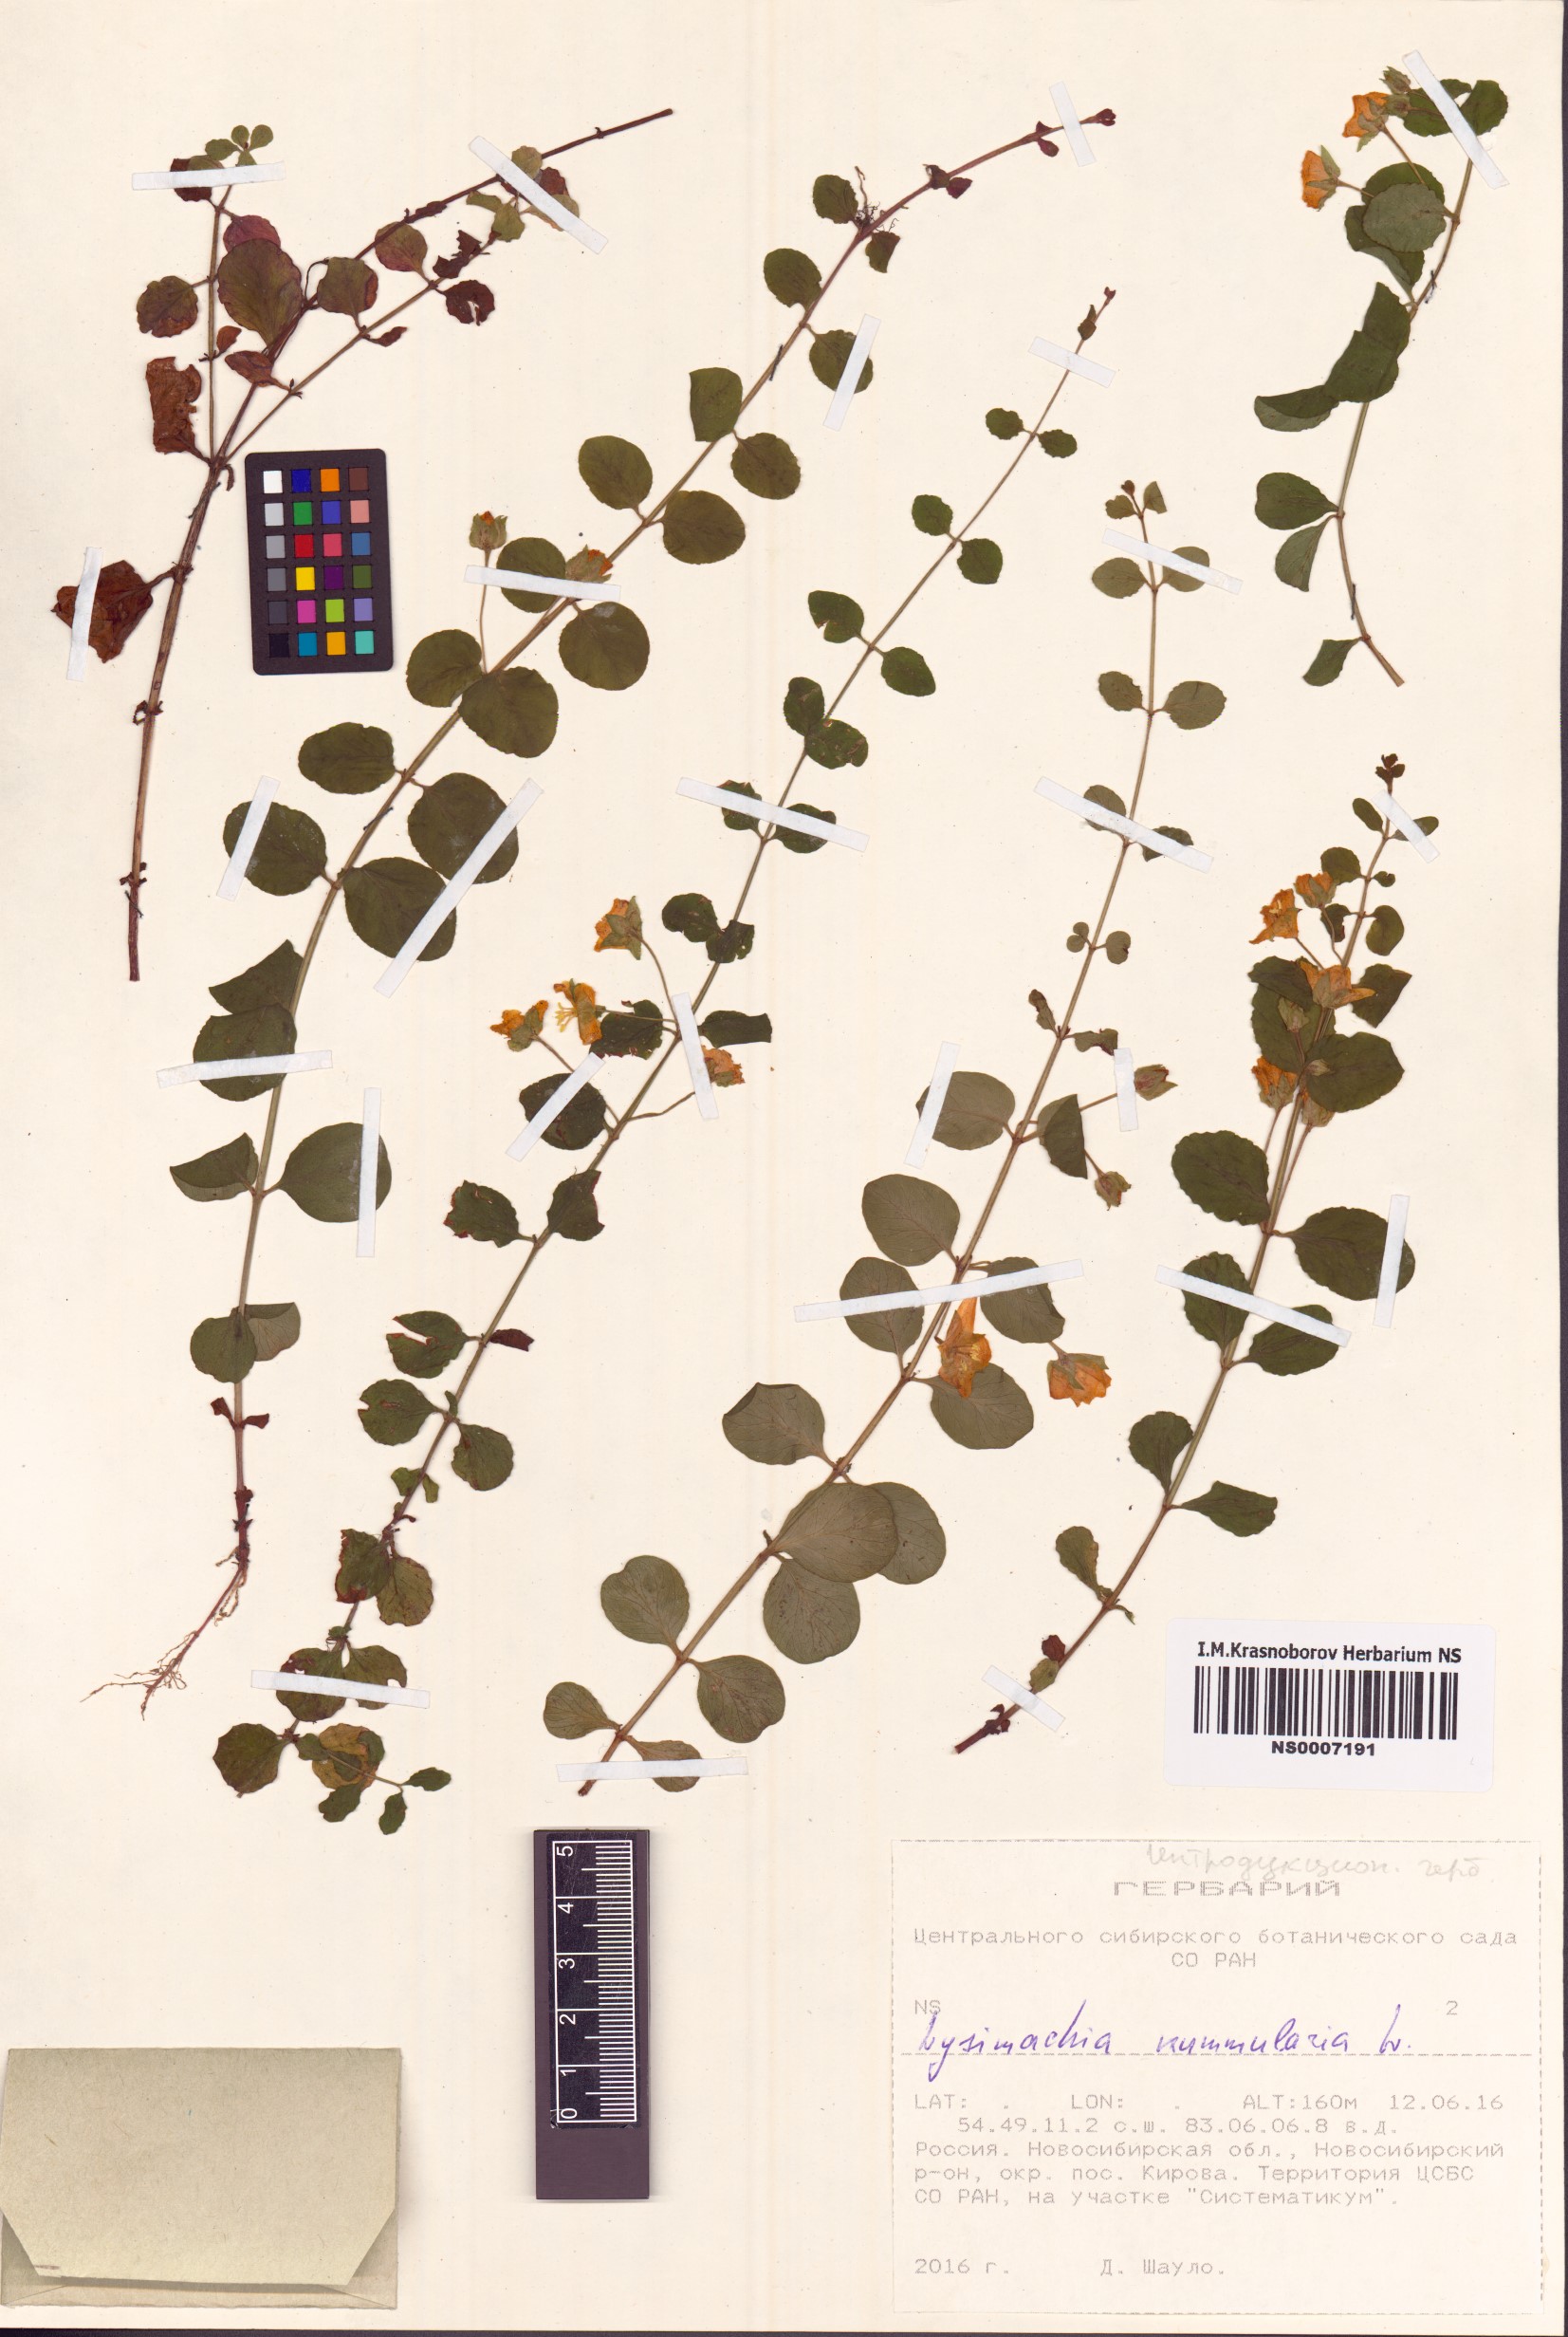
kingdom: Plantae
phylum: Tracheophyta
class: Magnoliopsida
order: Ericales
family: Primulaceae
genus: Lysimachia
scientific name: Lysimachia nummularia
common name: Moneywort
